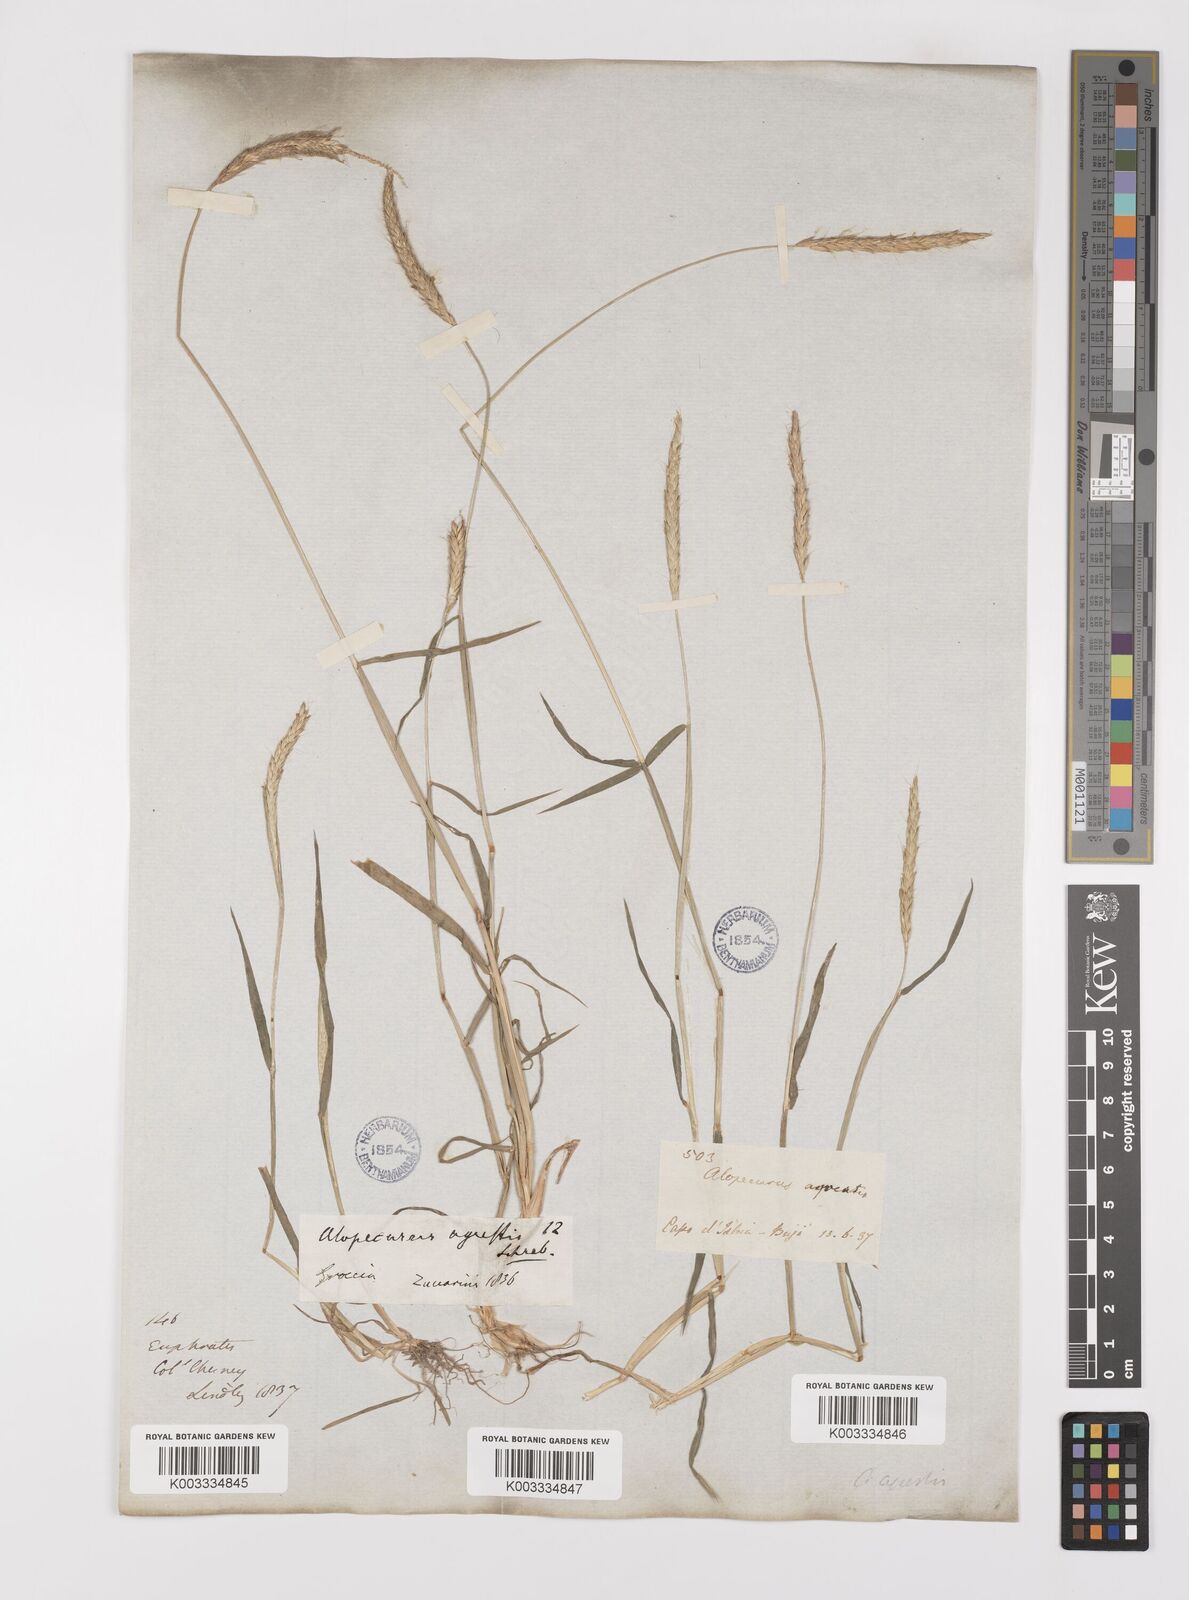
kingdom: Plantae
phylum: Tracheophyta
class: Liliopsida
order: Poales
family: Poaceae
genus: Alopecurus
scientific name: Alopecurus myosuroides
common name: Black-grass
